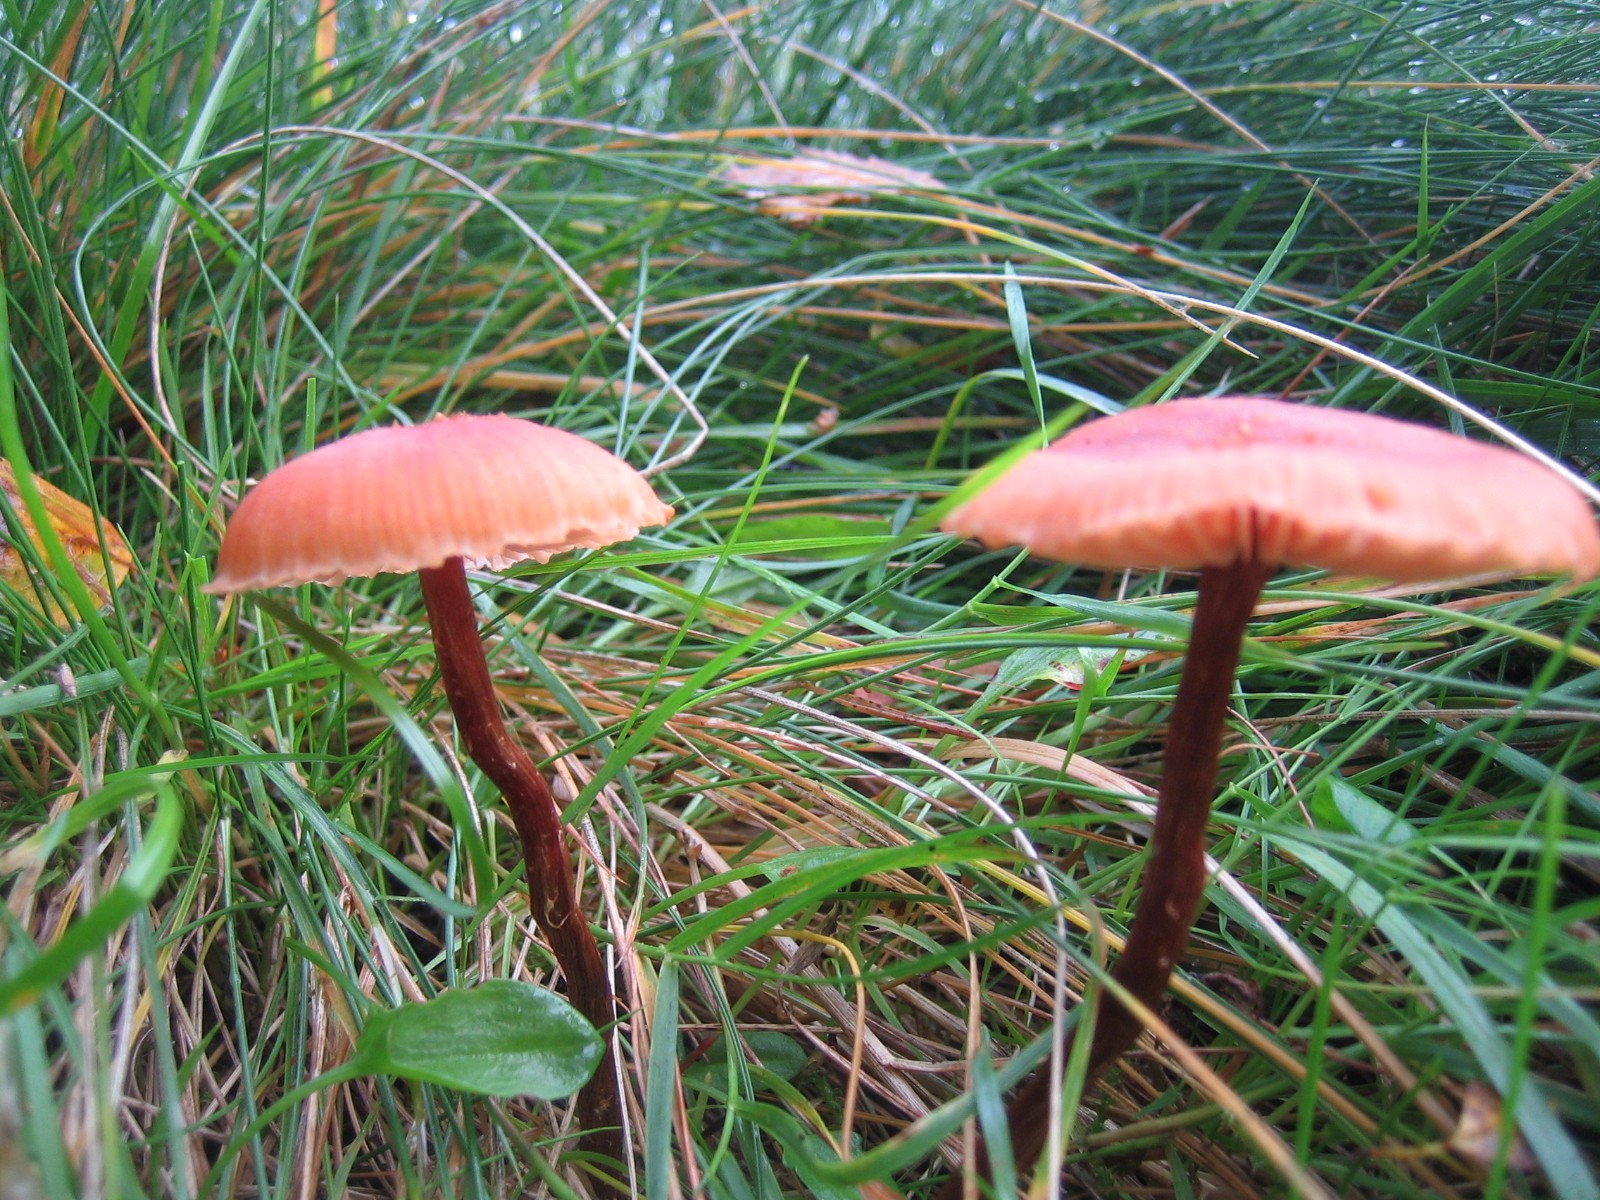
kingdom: Fungi
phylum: Basidiomycota
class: Agaricomycetes
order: Agaricales
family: Hydnangiaceae
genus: Laccaria
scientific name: Laccaria proxima
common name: stor ametysthat
